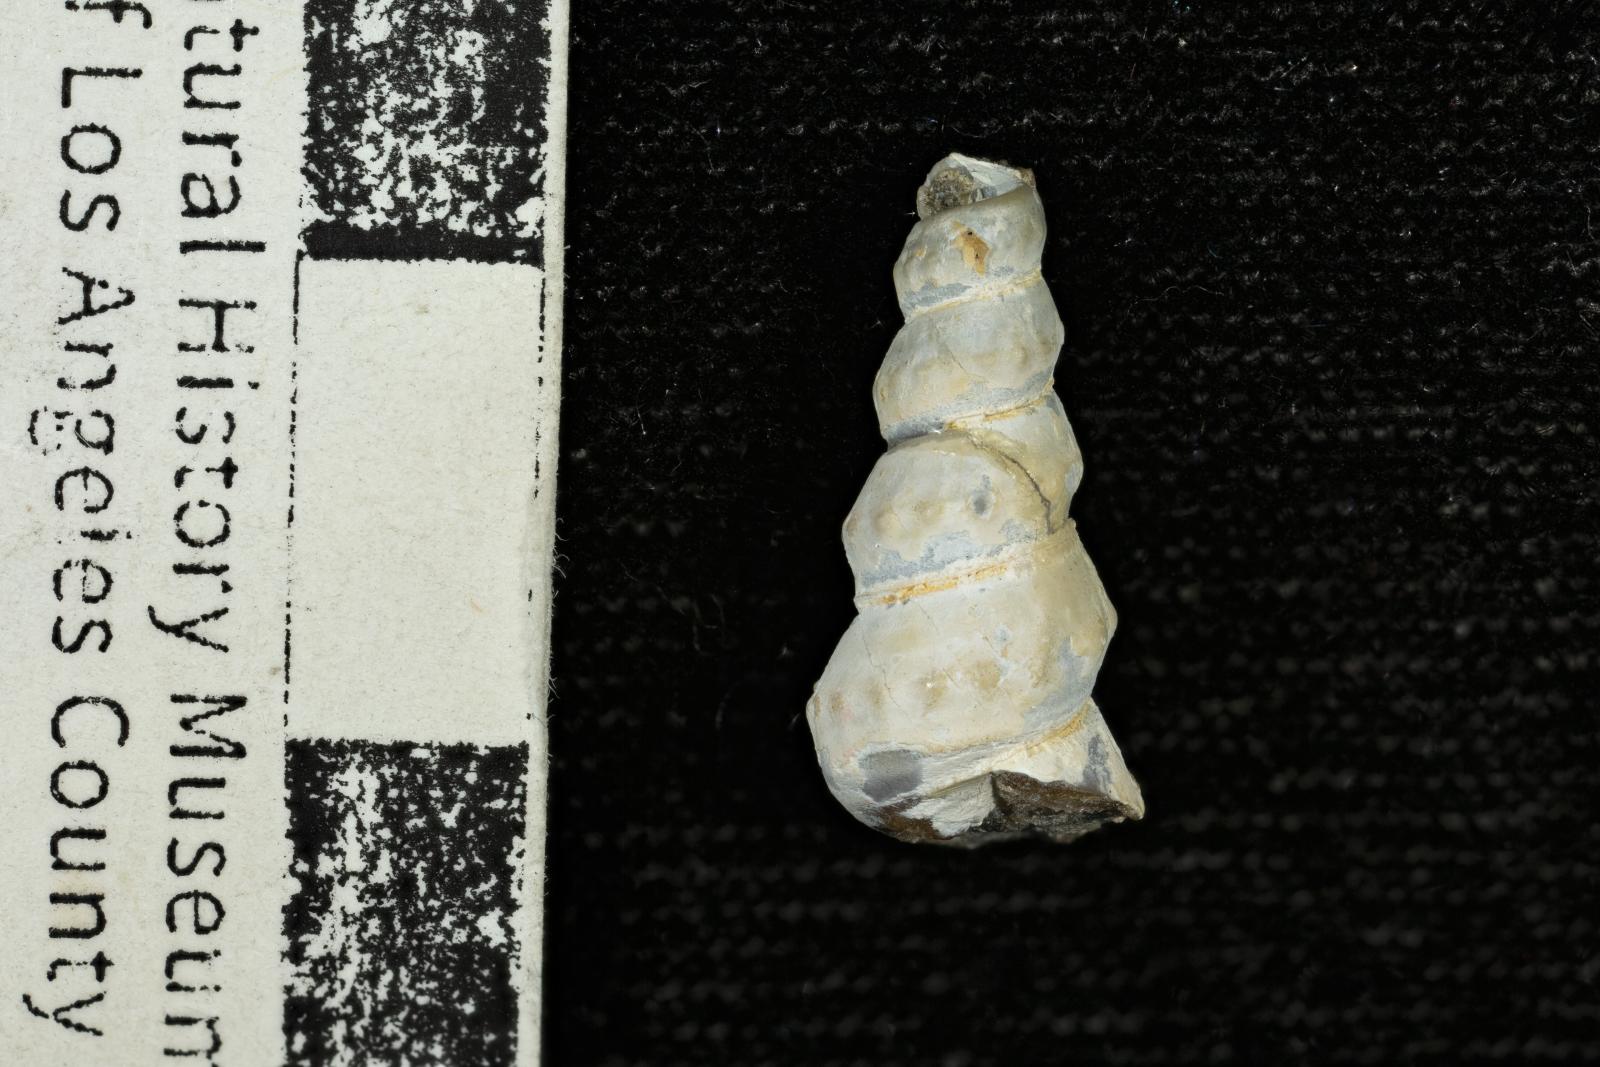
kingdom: Animalia
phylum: Mollusca
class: Gastropoda
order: Littorinimorpha
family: Aporrhaidae
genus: Anchura
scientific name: Anchura phaba
